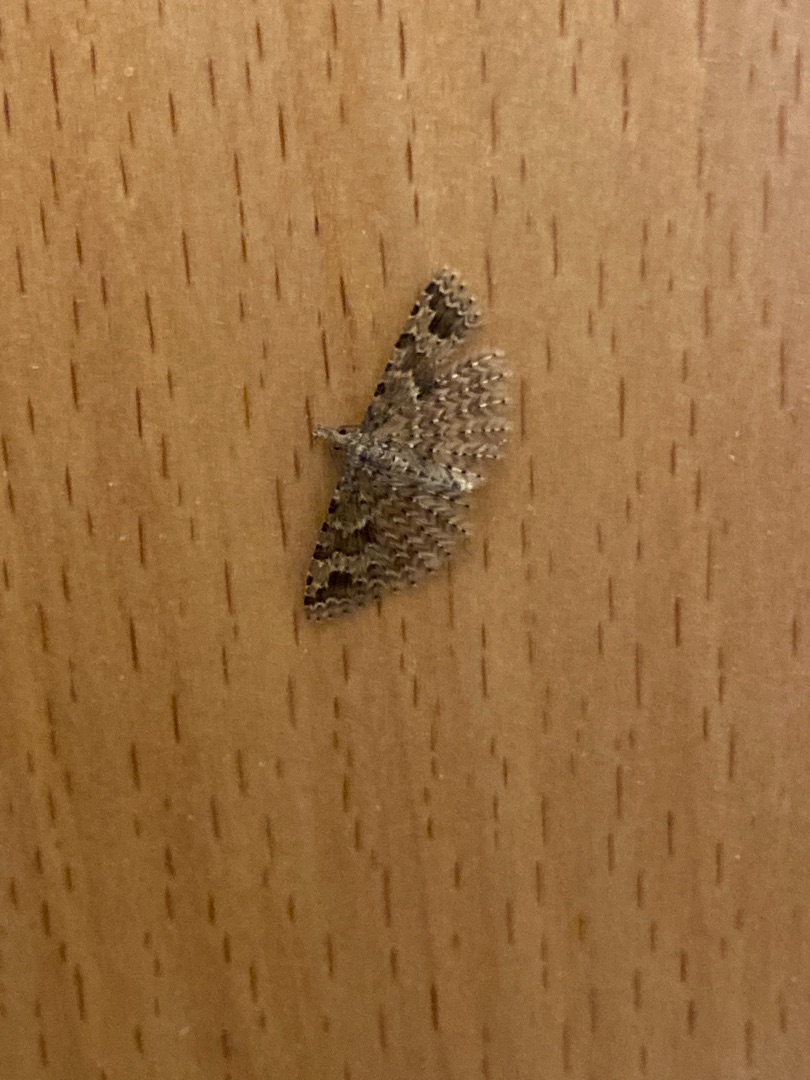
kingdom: Animalia
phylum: Arthropoda
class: Insecta
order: Lepidoptera
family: Alucitidae
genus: Alucita
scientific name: Alucita hexadactyla
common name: Kaprifoliefjermøl
